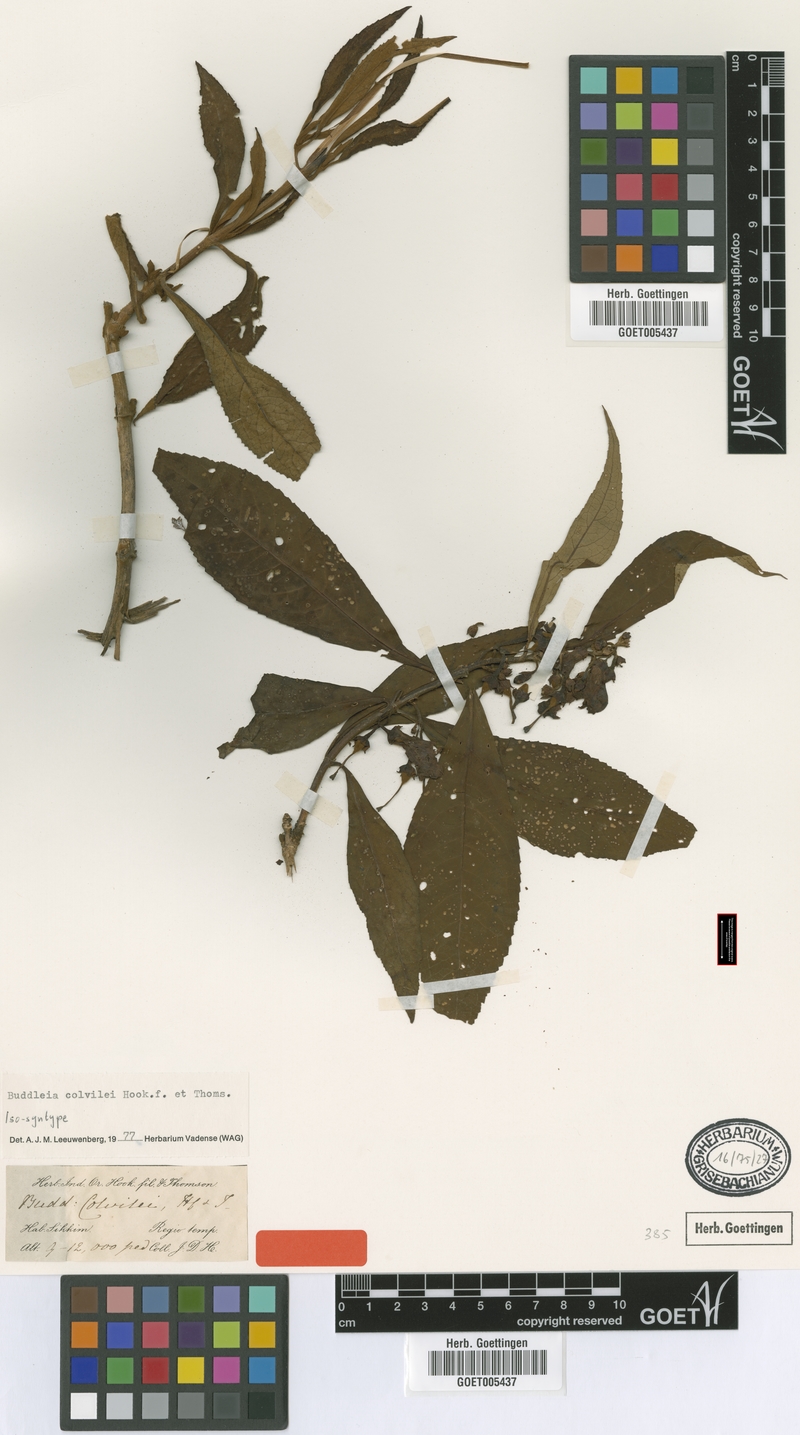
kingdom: Plantae
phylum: Tracheophyta
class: Magnoliopsida
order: Lamiales
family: Scrophulariaceae
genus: Buddleja
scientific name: Buddleja colvilei
